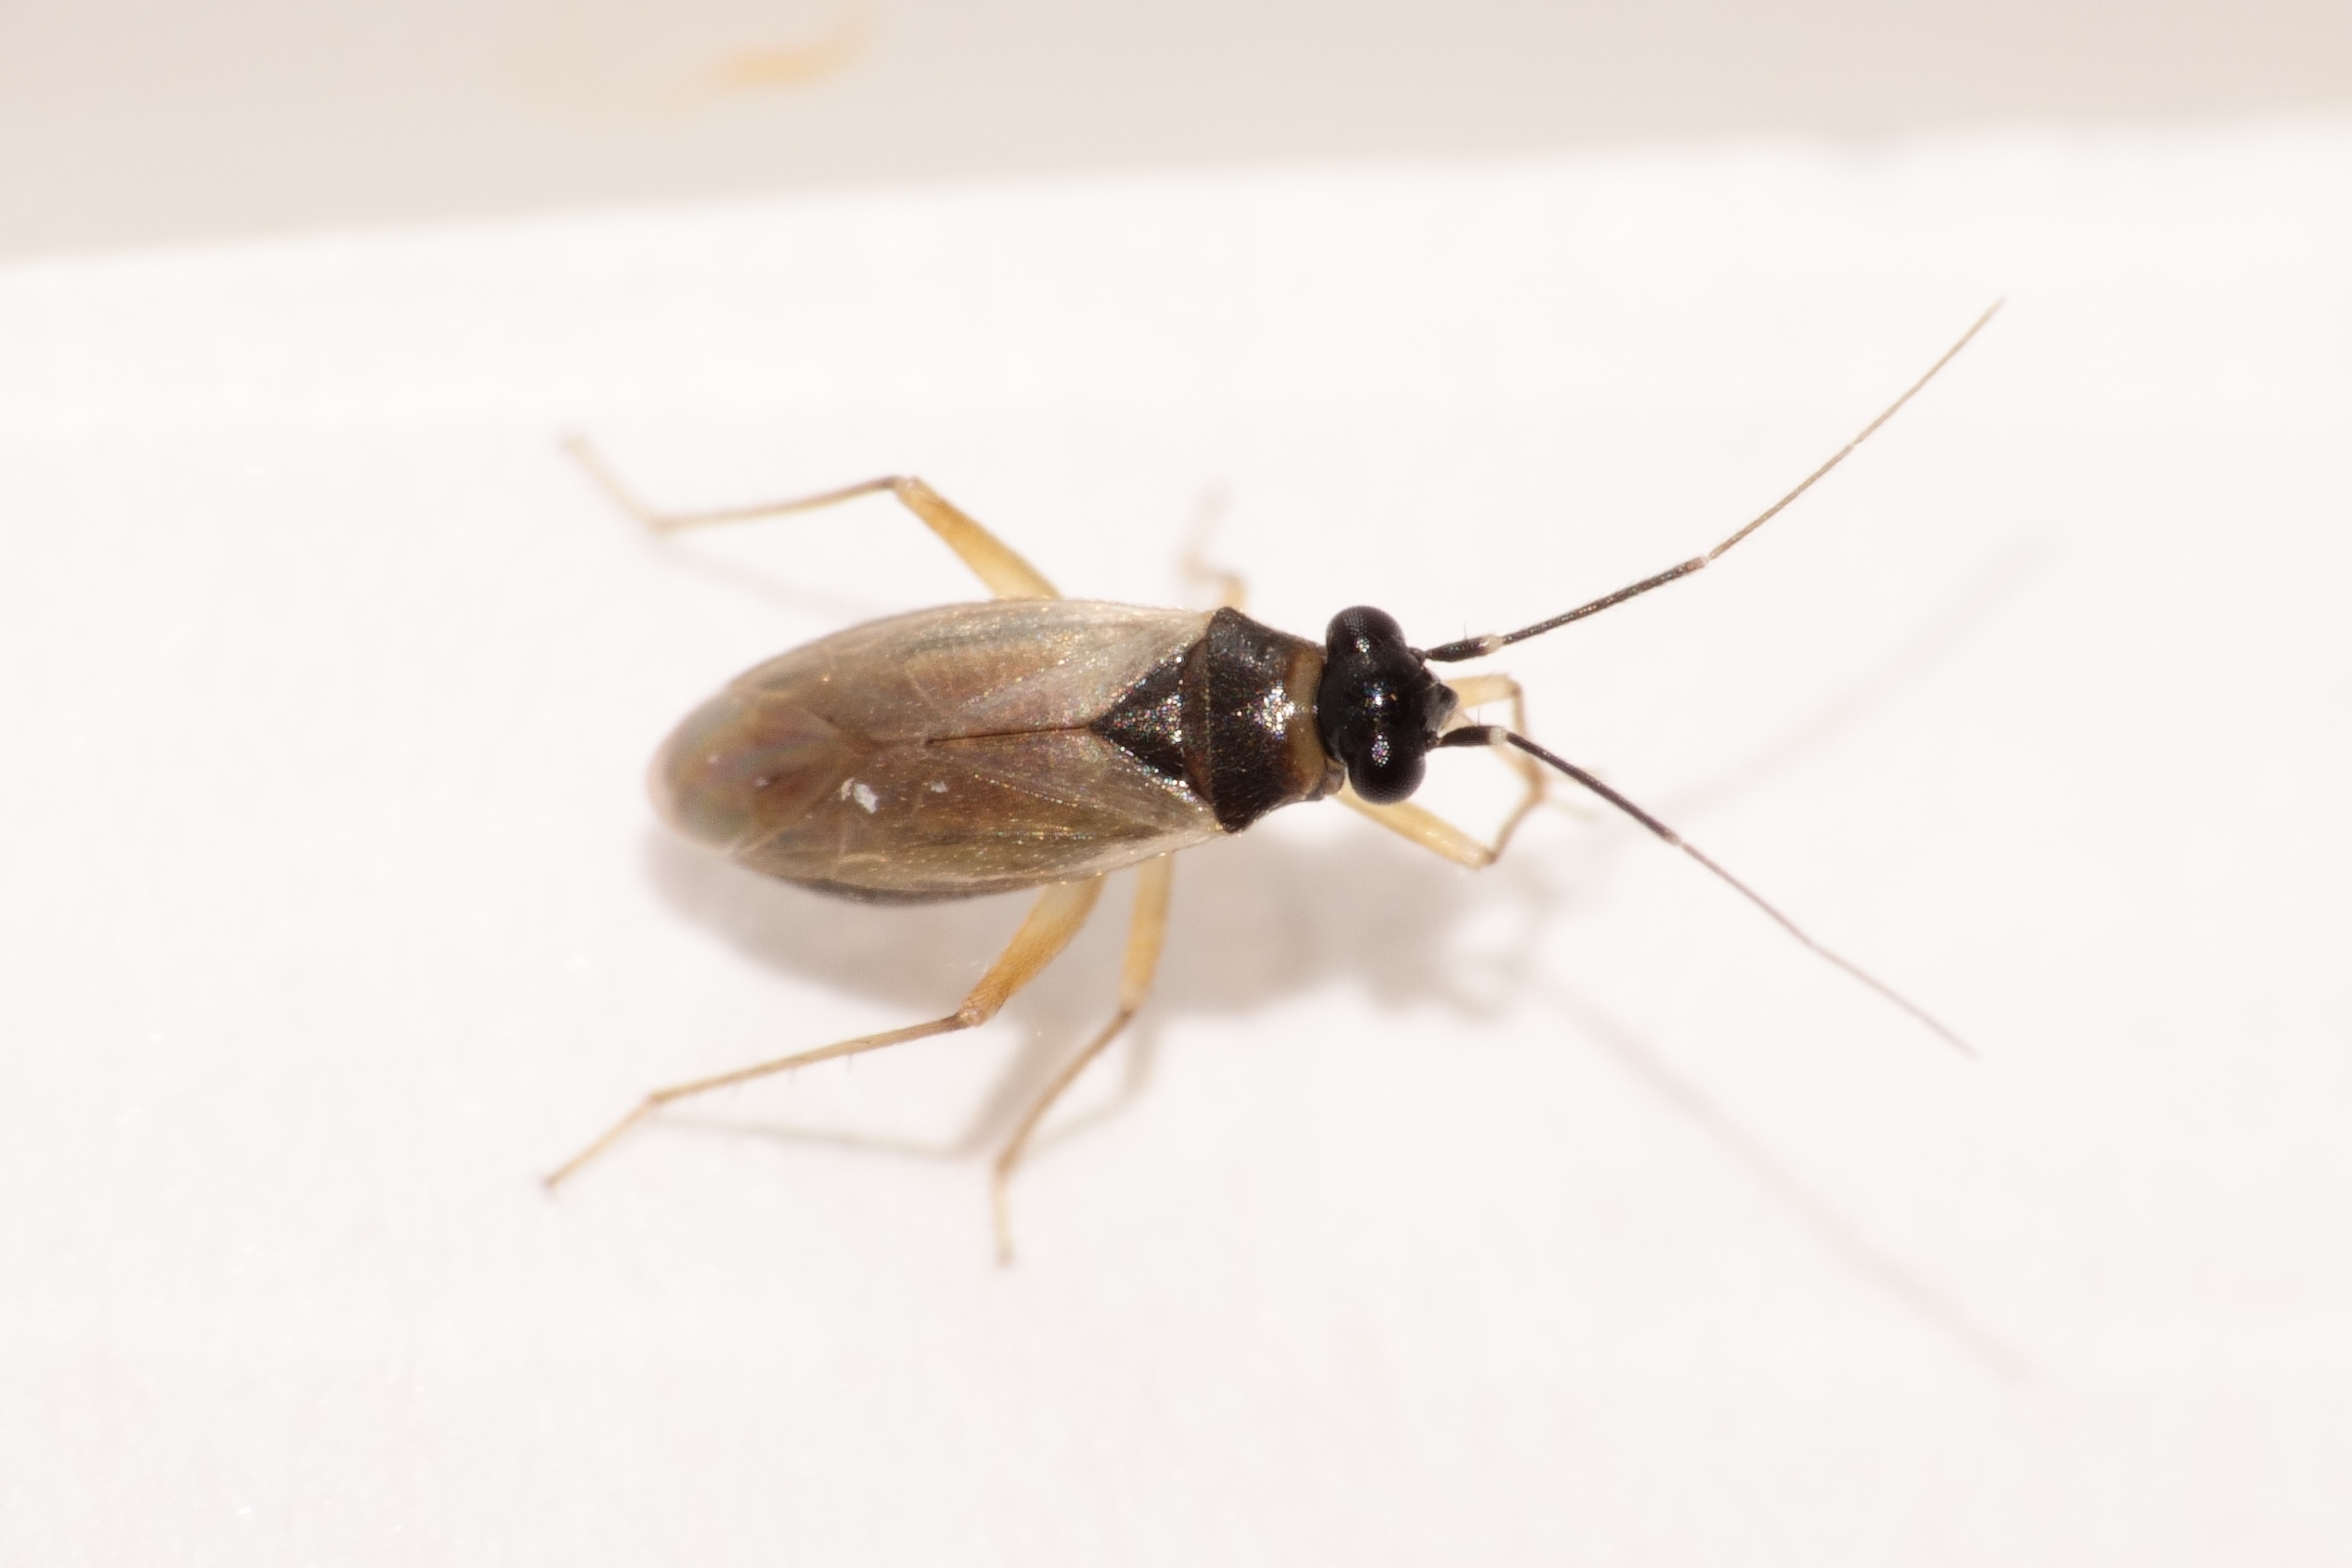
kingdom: Animalia
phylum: Arthropoda
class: Insecta
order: Hemiptera
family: Miridae
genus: Tytthus
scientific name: Tytthus pygmaeus
